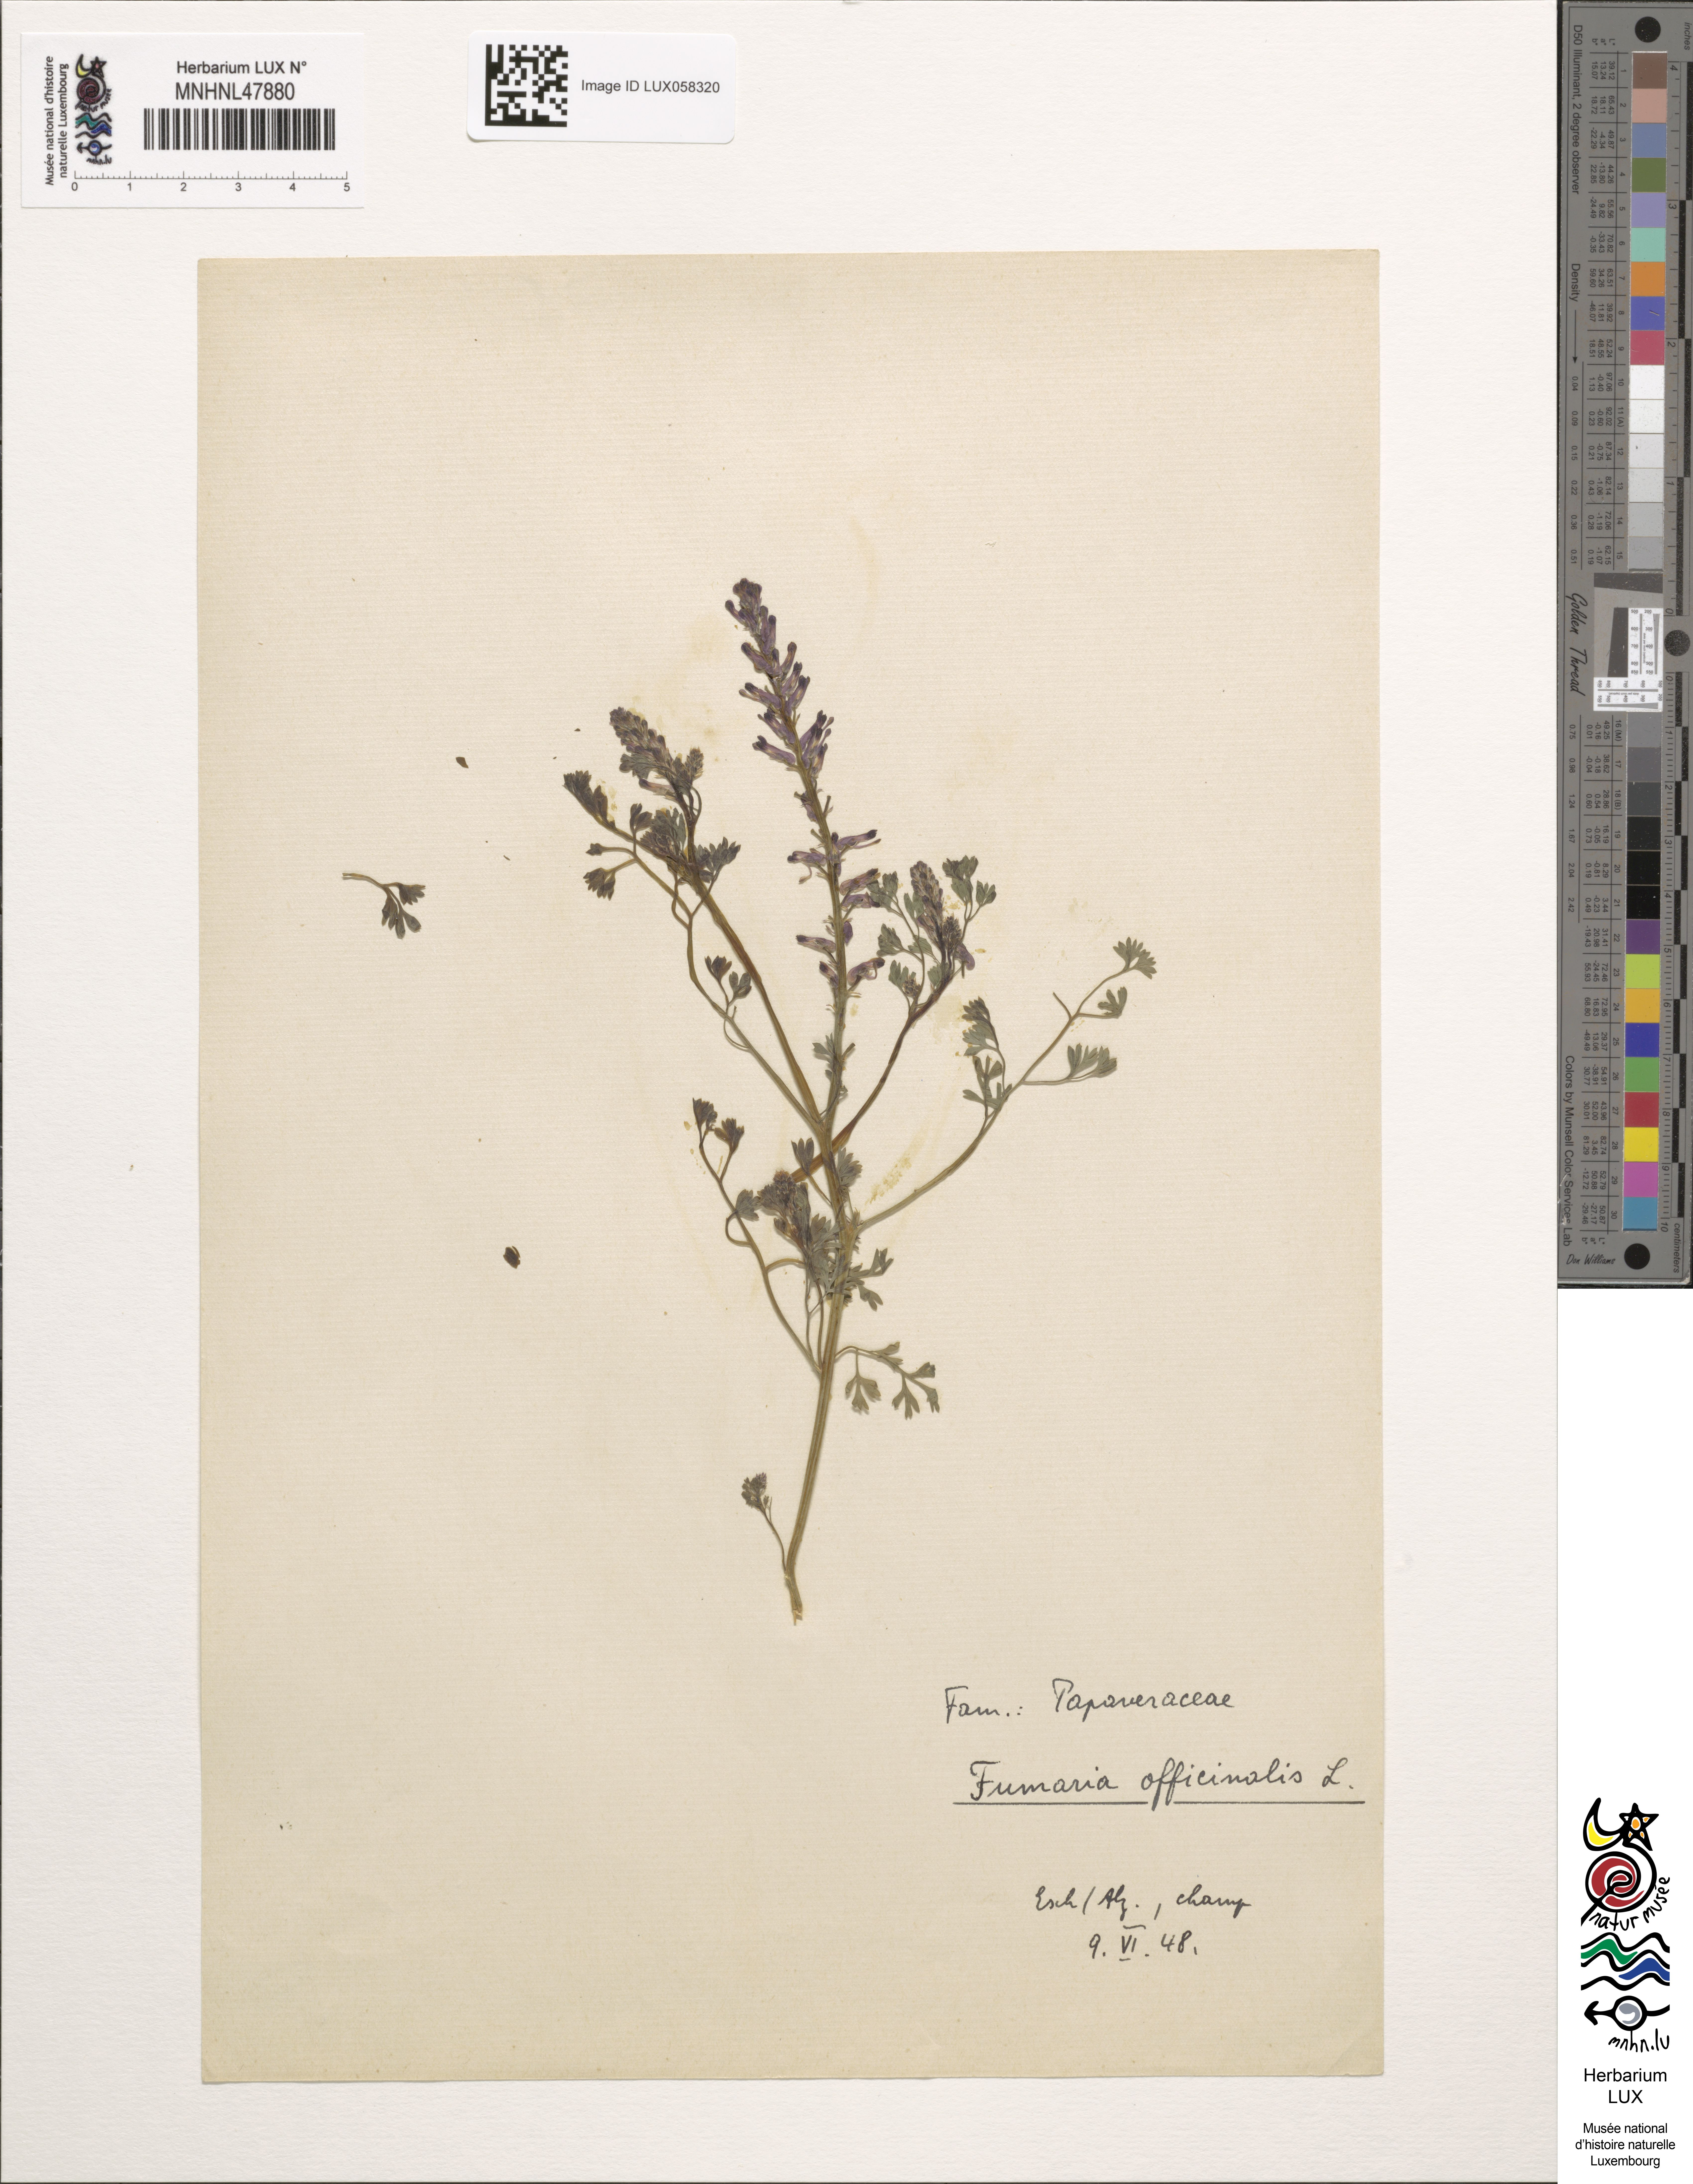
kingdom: Plantae
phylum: Tracheophyta
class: Magnoliopsida
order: Ranunculales
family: Papaveraceae
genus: Fumaria
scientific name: Fumaria officinalis
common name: Common fumitory
